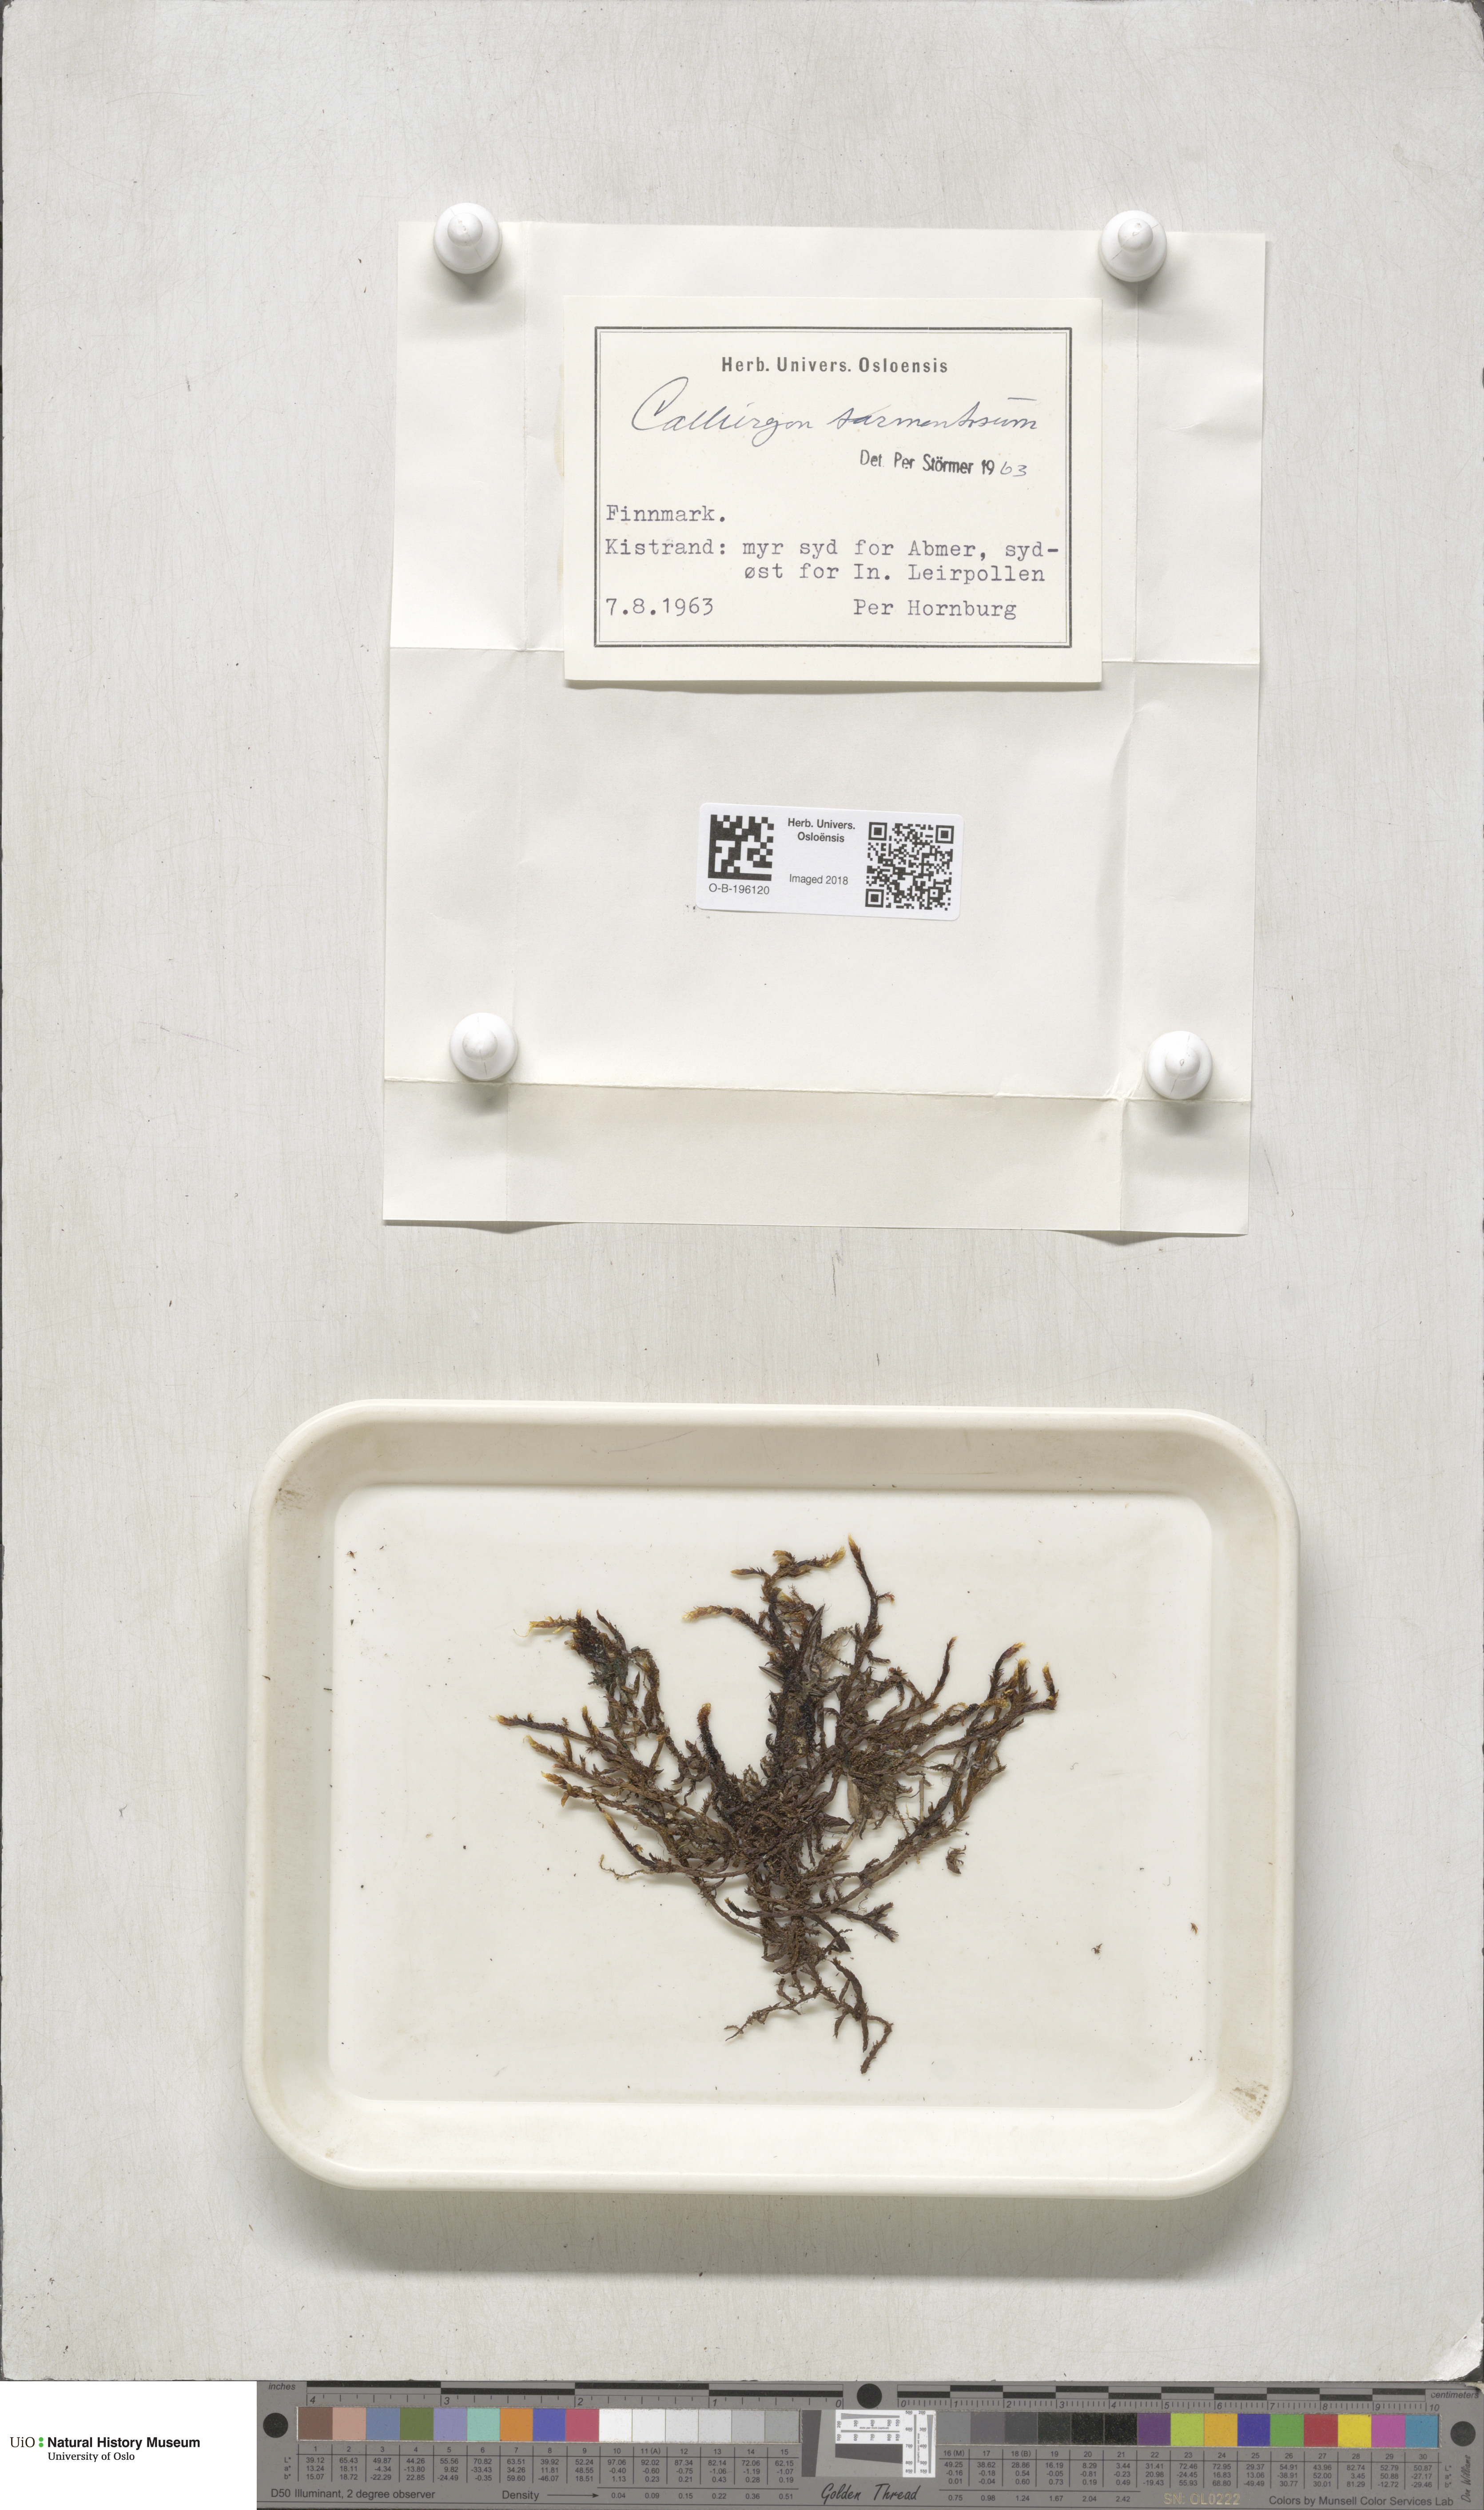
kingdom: Plantae
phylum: Bryophyta
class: Bryopsida
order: Hypnales
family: Calliergonaceae
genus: Sarmentypnum
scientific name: Sarmentypnum sarmentosum
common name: Twiggy spoon moss
